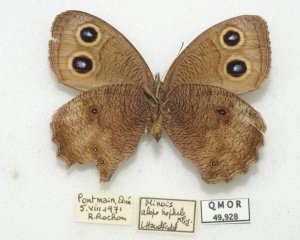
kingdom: Animalia
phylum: Arthropoda
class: Insecta
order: Lepidoptera
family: Nymphalidae
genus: Cercyonis
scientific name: Cercyonis pegala
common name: Common Wood-Nymph
